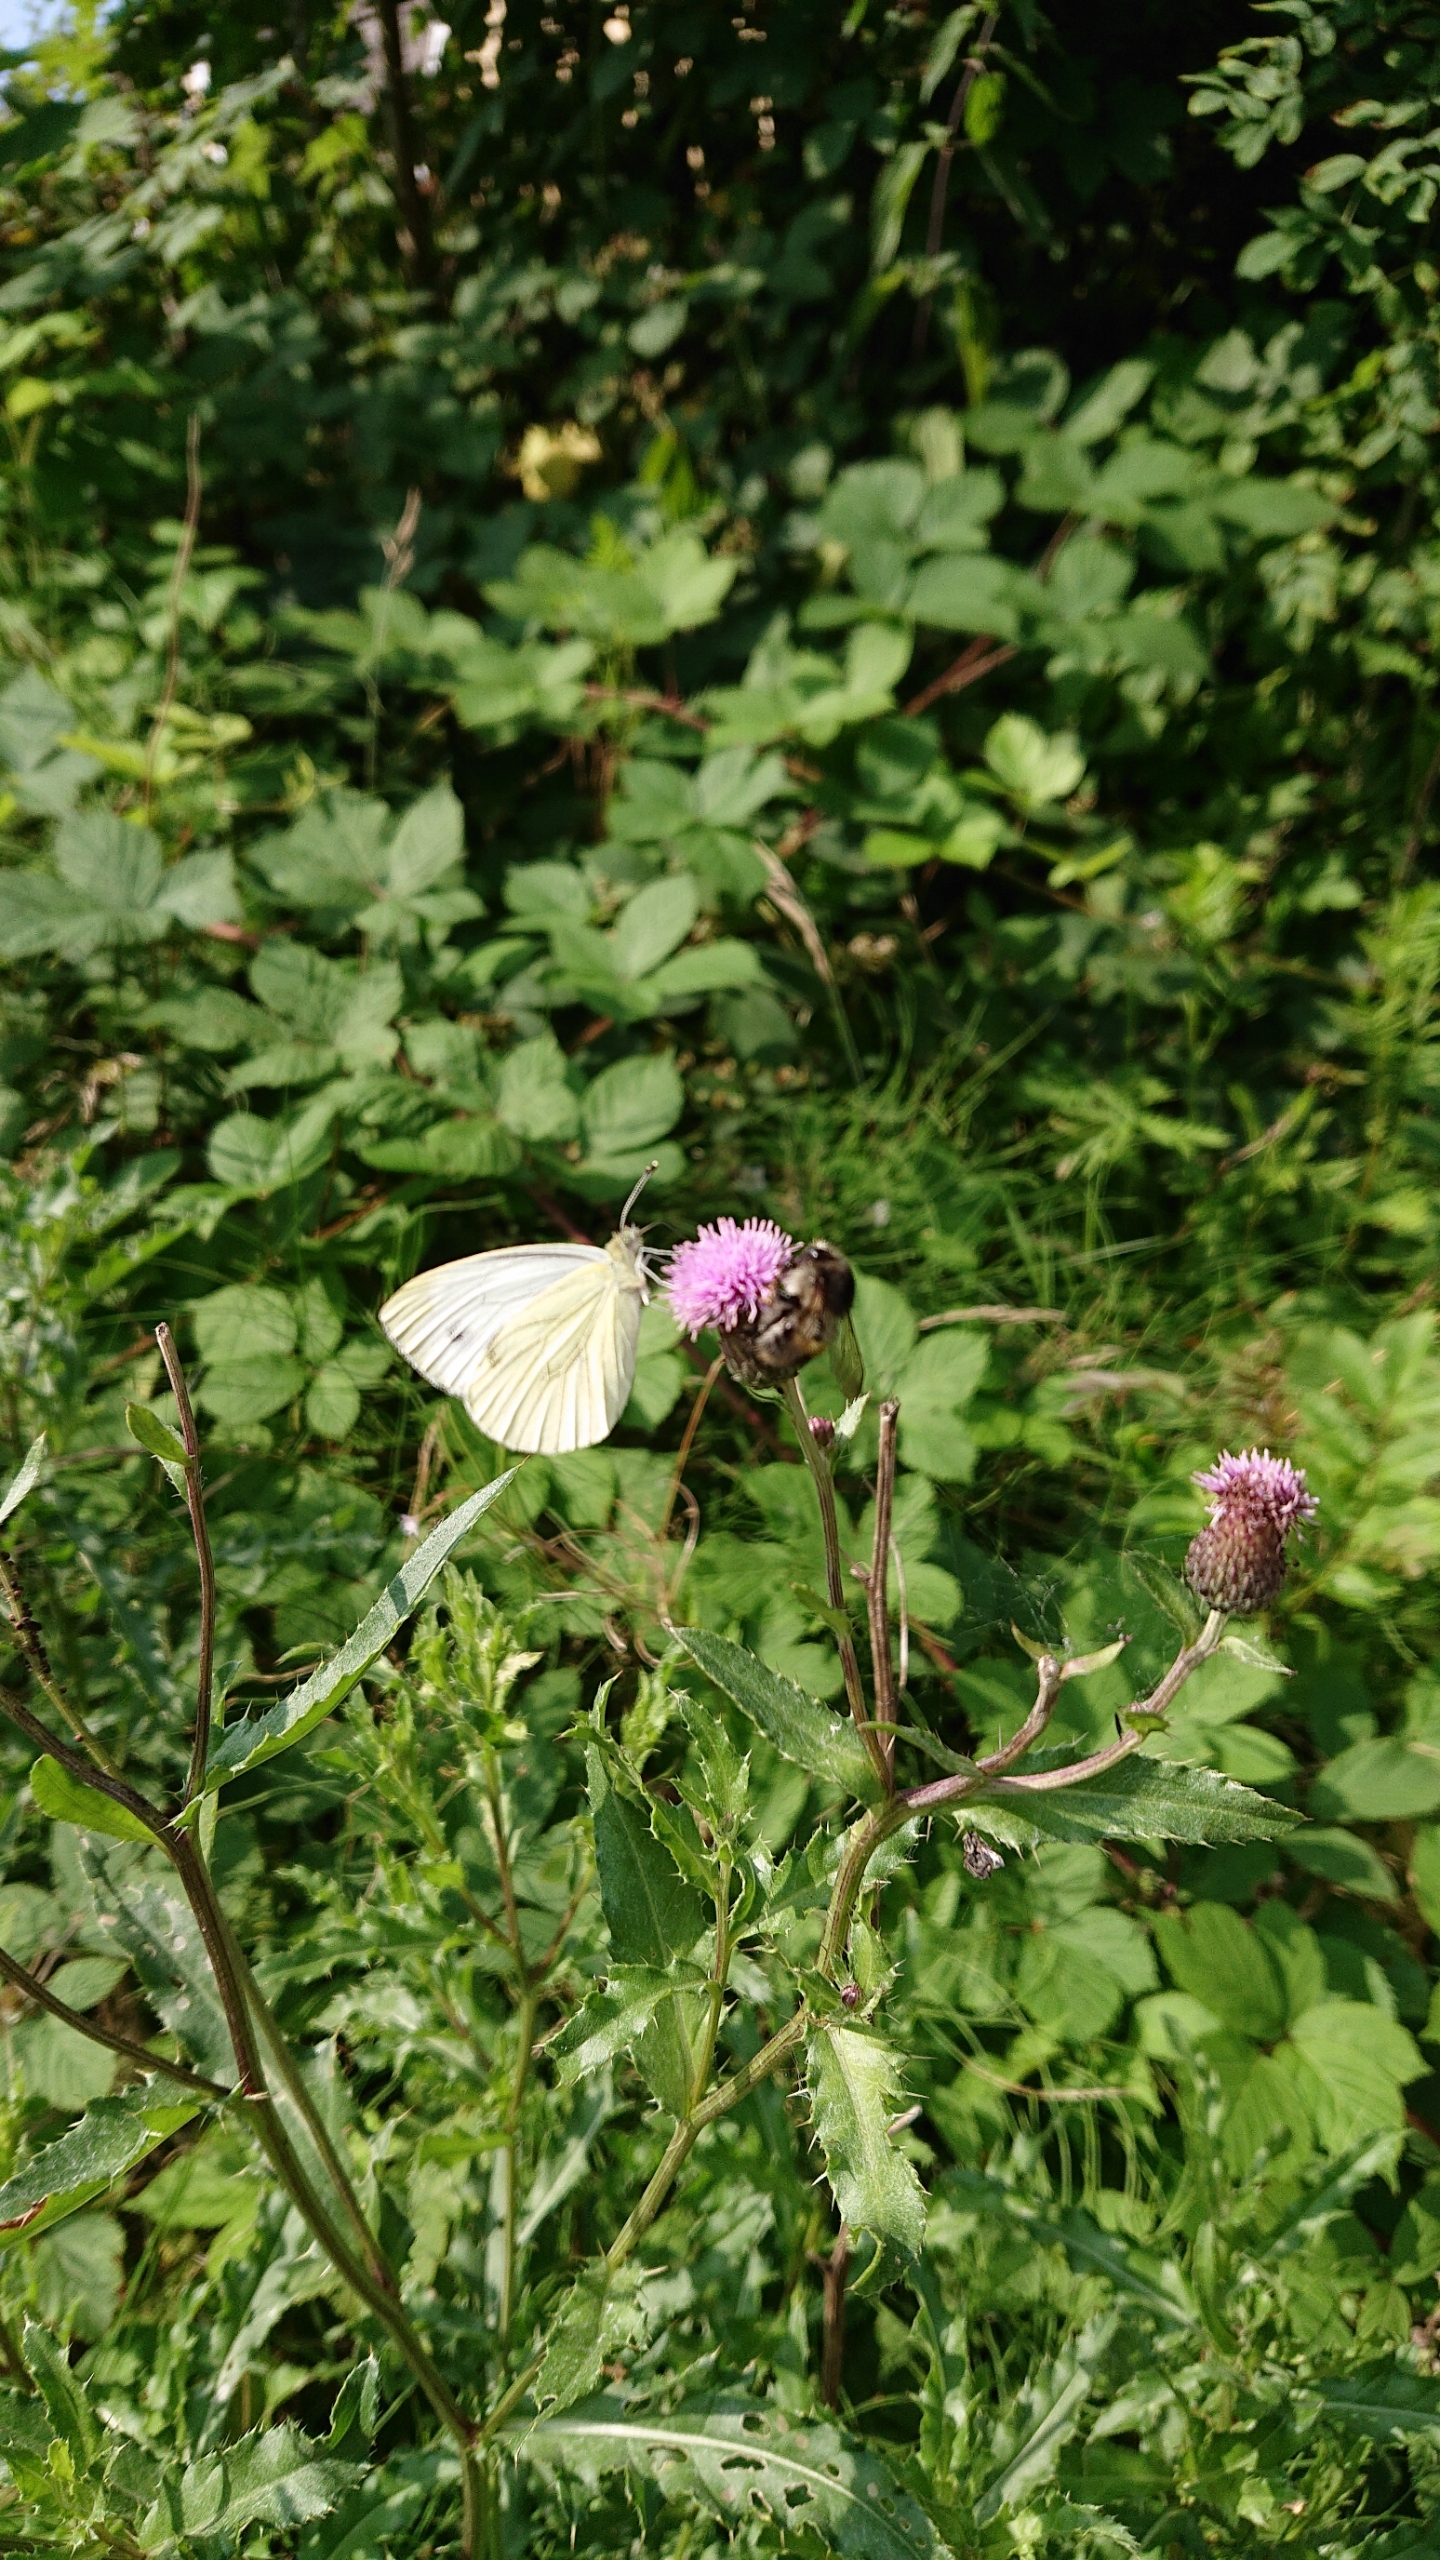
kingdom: Animalia
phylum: Arthropoda
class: Insecta
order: Lepidoptera
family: Pieridae
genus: Pieris
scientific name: Pieris rapae
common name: Lille kålsommerfugl
